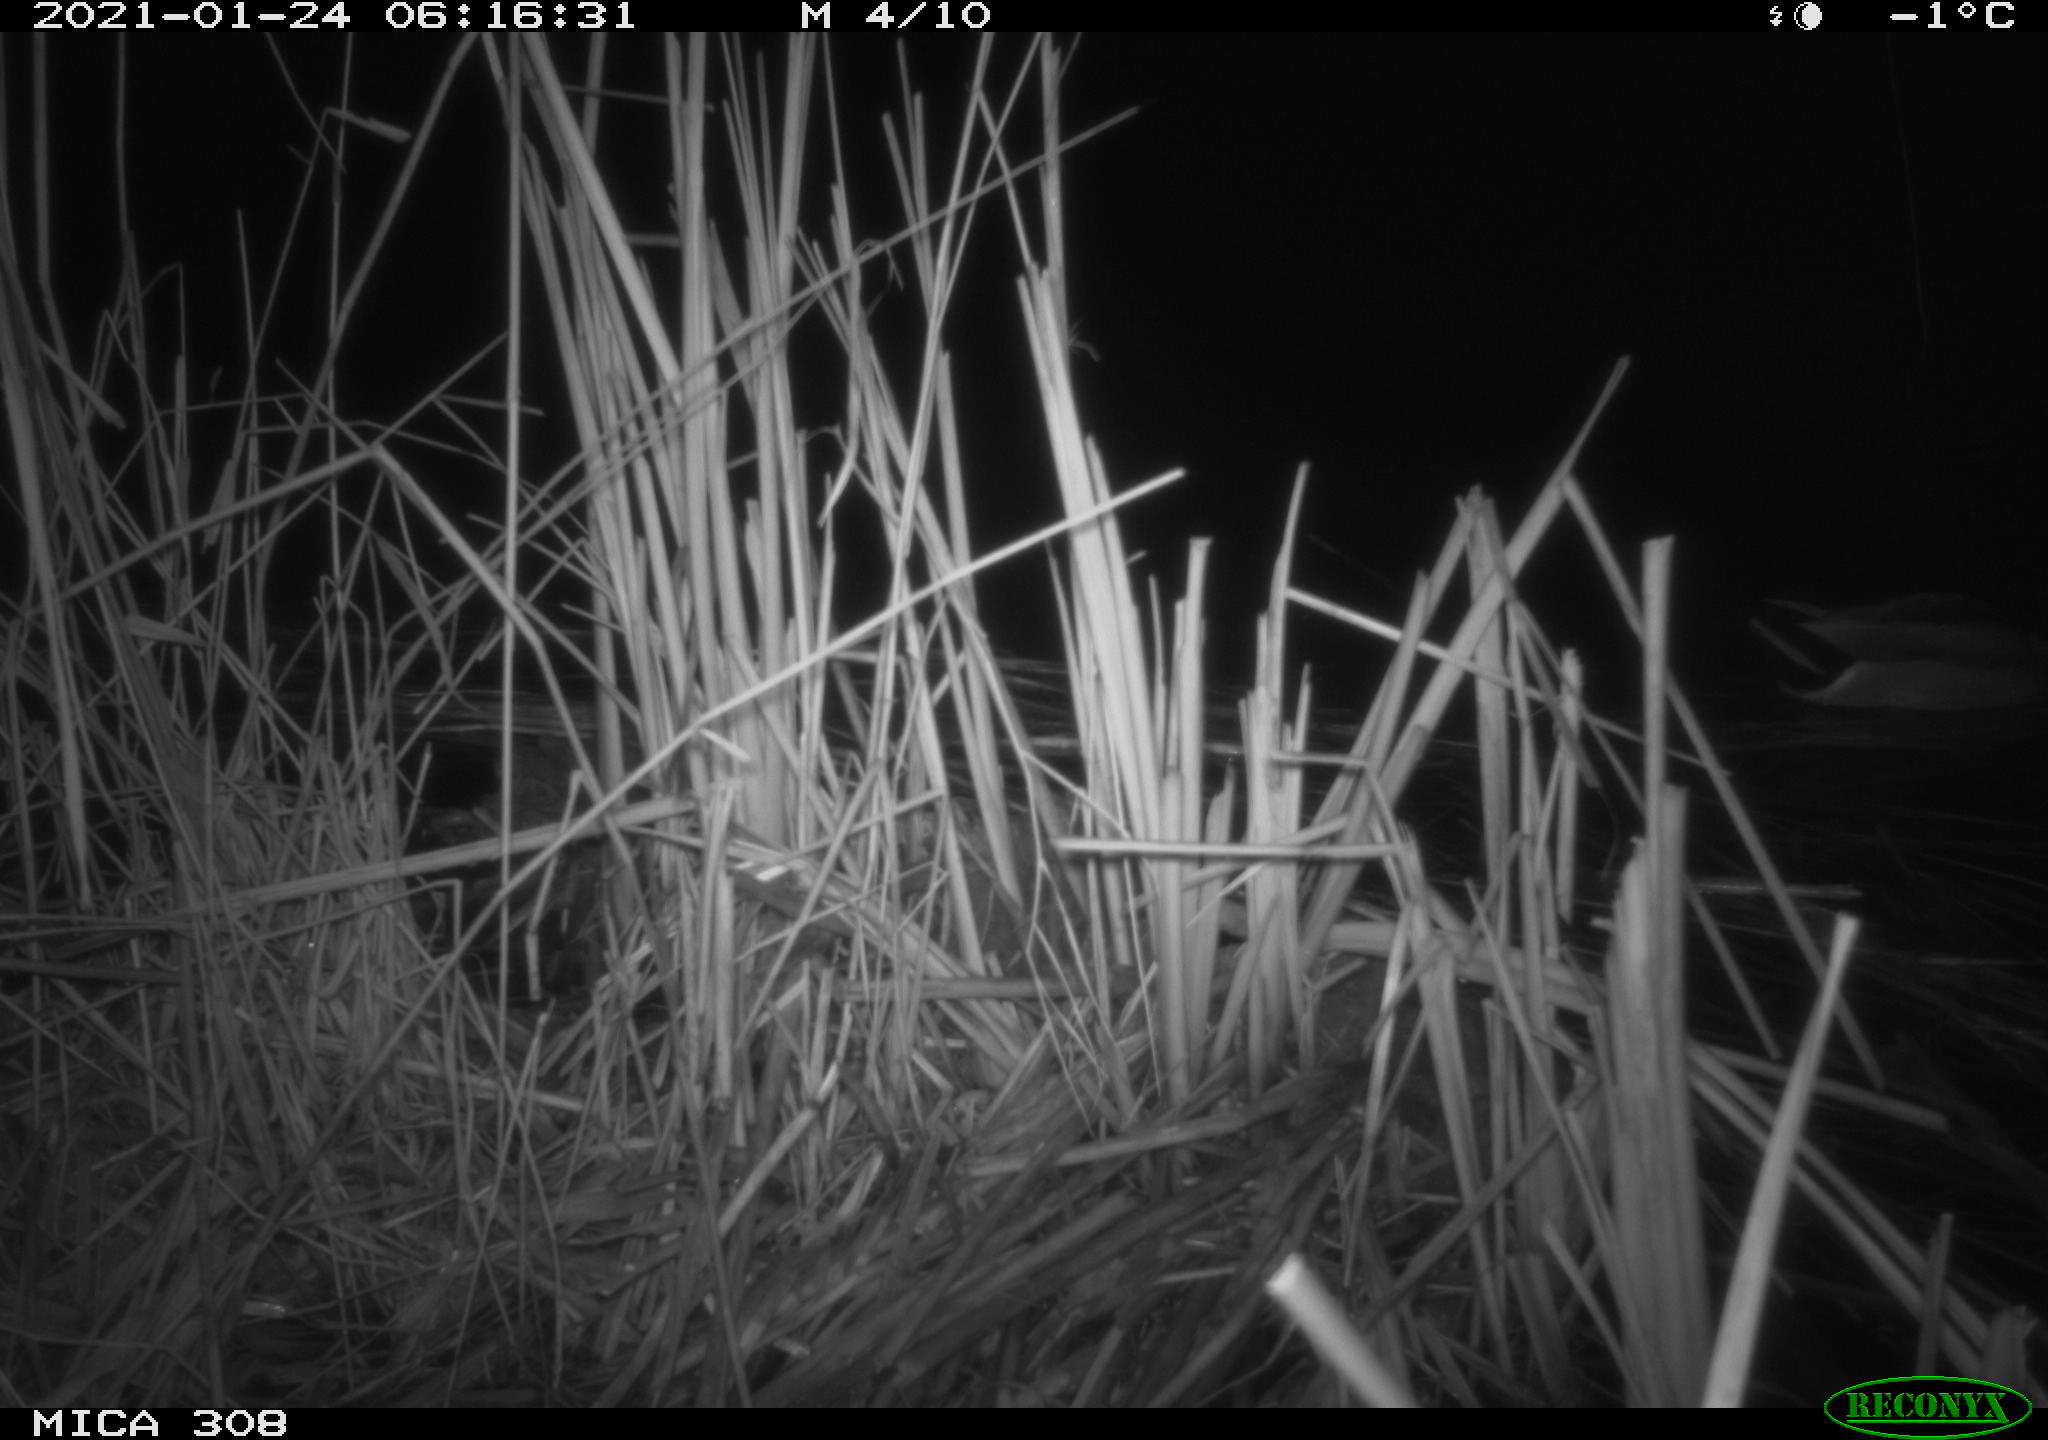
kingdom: Animalia
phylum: Chordata
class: Aves
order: Anseriformes
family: Anatidae
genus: Anas
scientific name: Anas platyrhynchos
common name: Mallard
